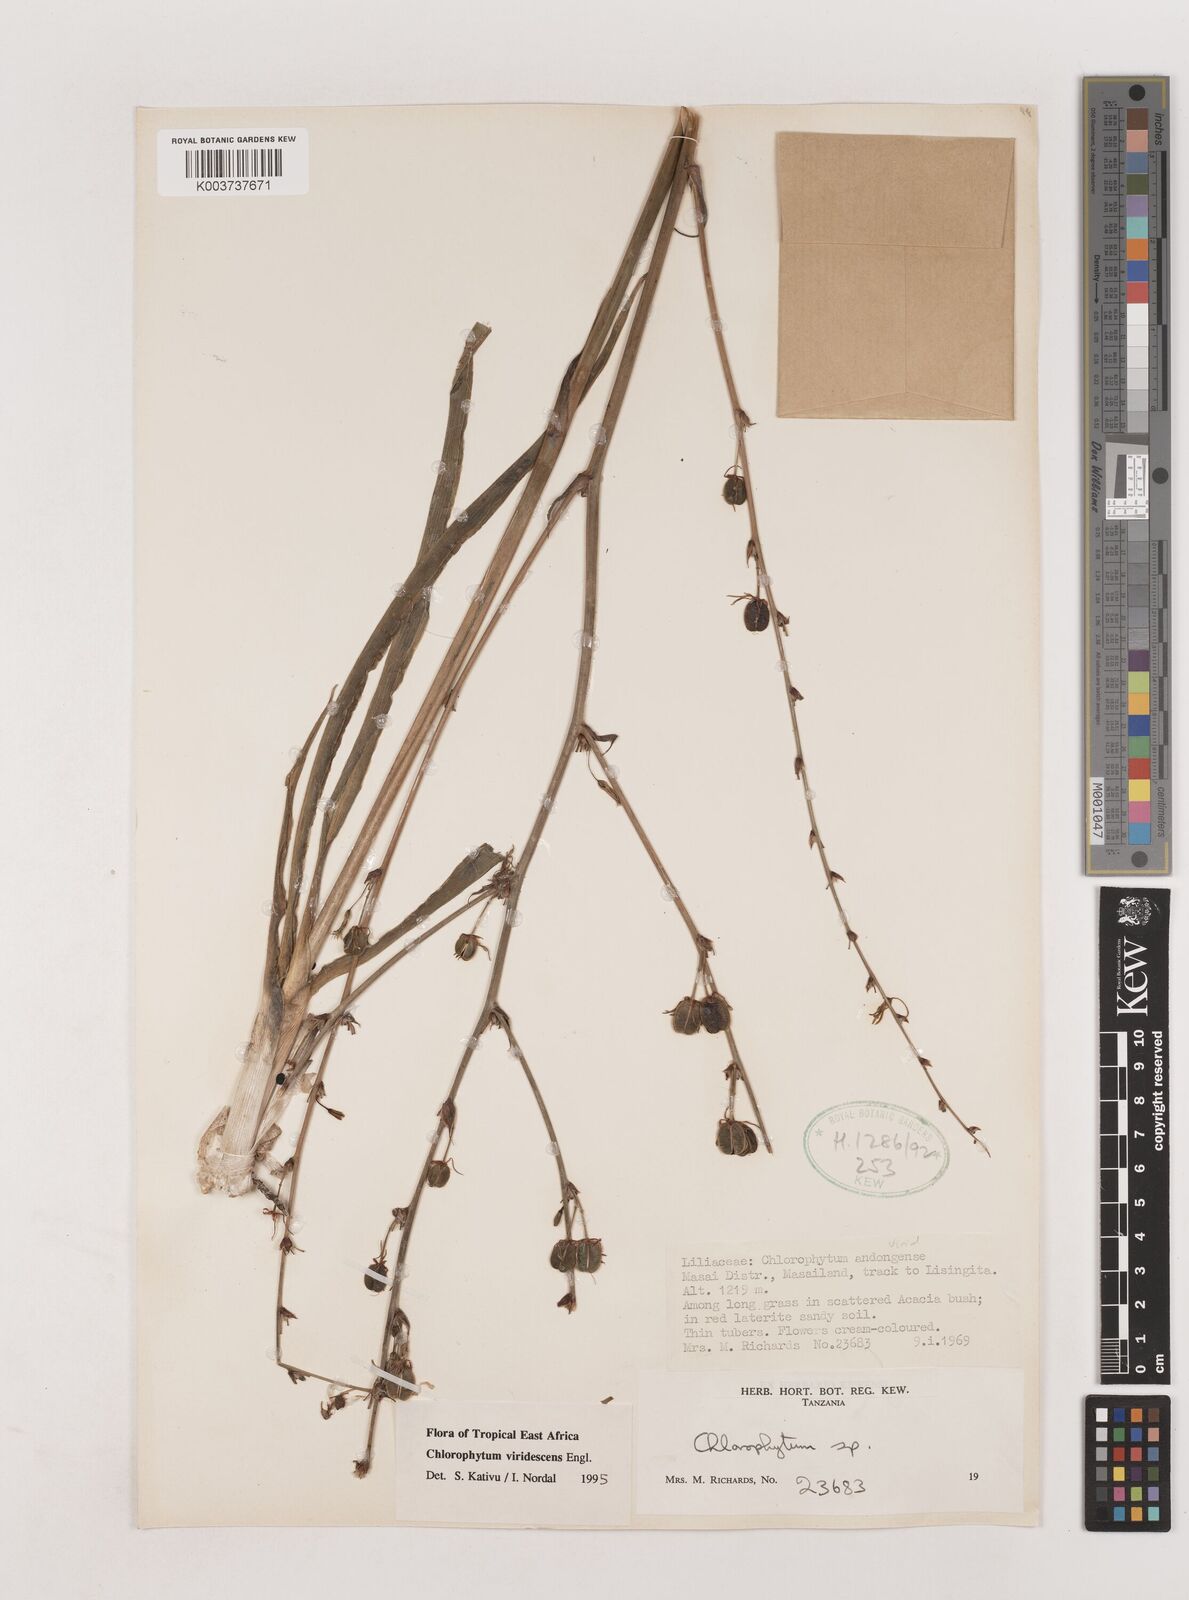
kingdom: Plantae
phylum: Tracheophyta
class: Liliopsida
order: Asparagales
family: Asparagaceae
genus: Chlorophytum
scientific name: Chlorophytum viridescens
